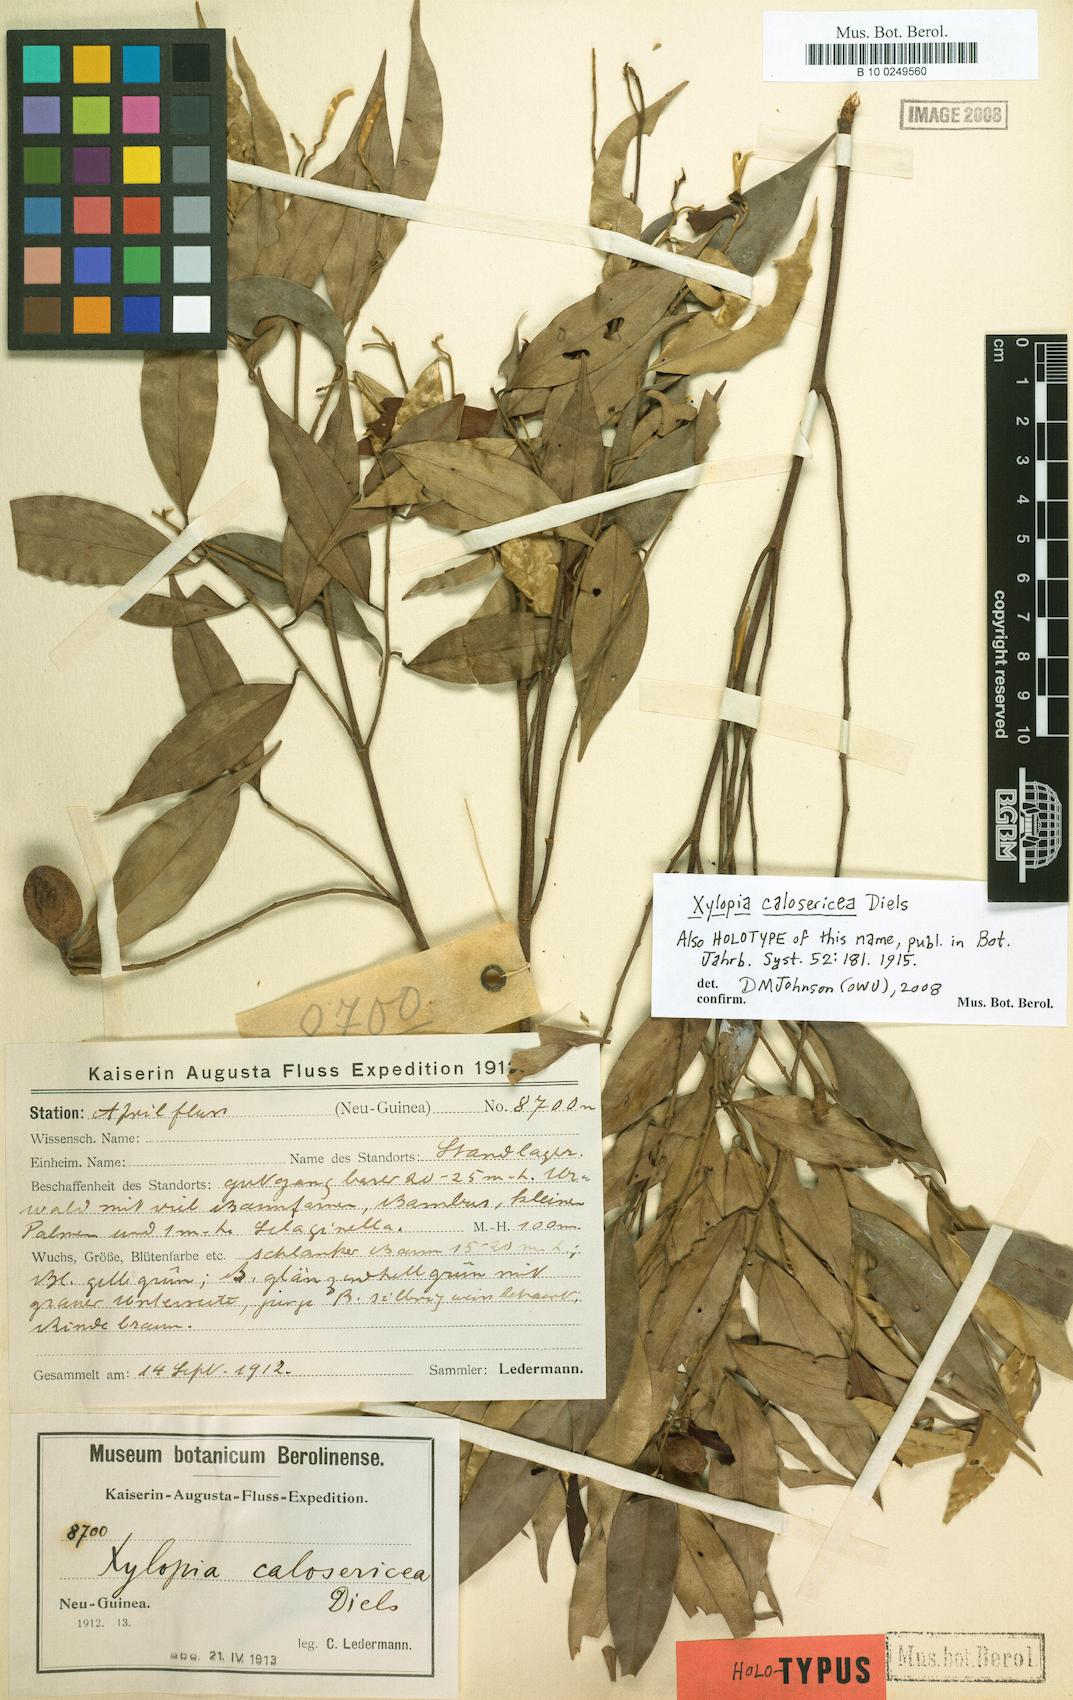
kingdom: Plantae
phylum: Tracheophyta
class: Magnoliopsida
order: Magnoliales
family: Annonaceae
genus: Xylopia
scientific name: Xylopia calosericea
